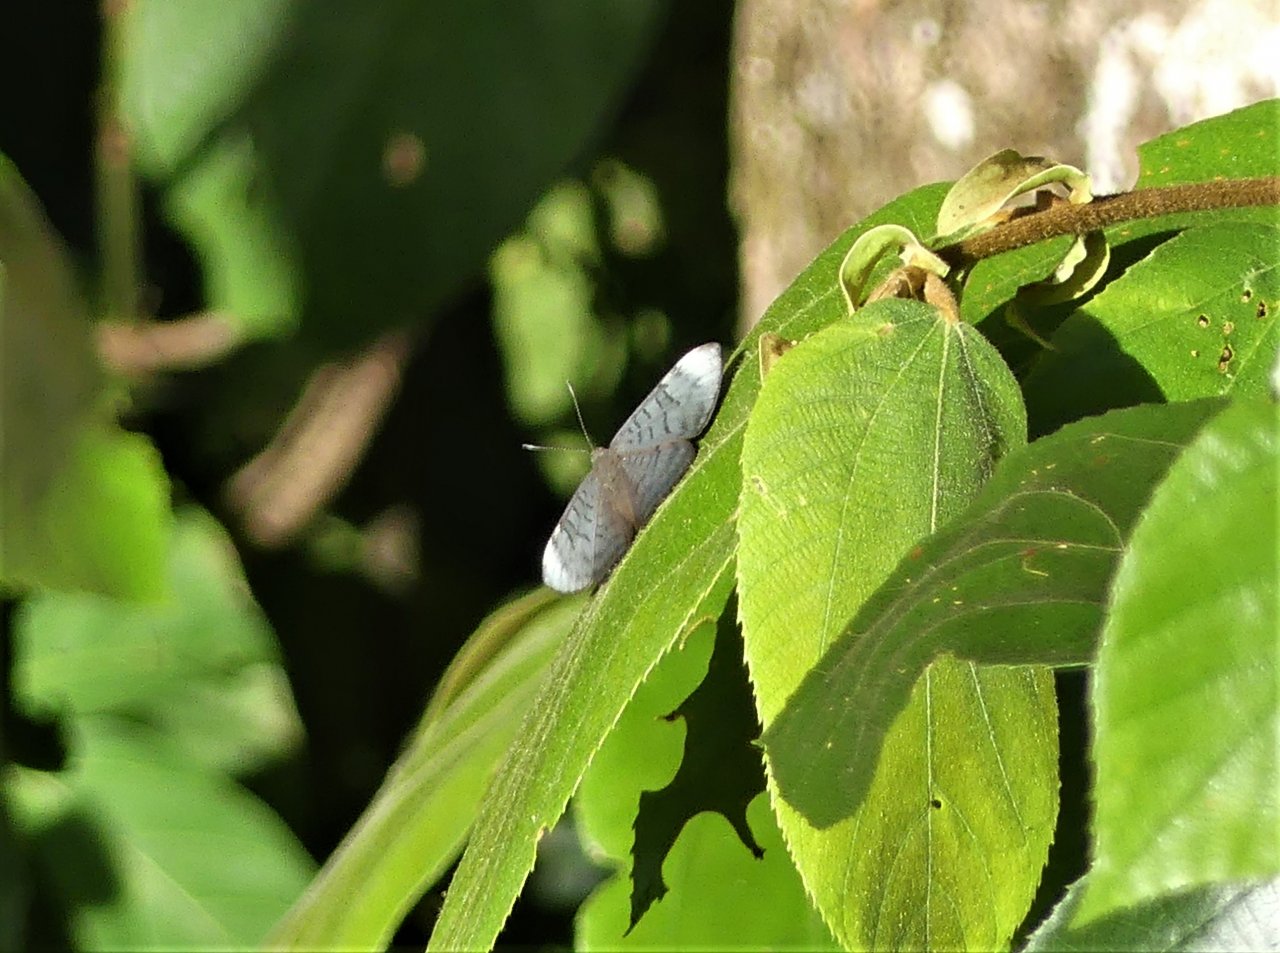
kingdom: Animalia
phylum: Arthropoda
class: Insecta
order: Lepidoptera
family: Lycaenidae
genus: Emesis
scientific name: Emesis aurimna
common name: White-spotted Emesis
